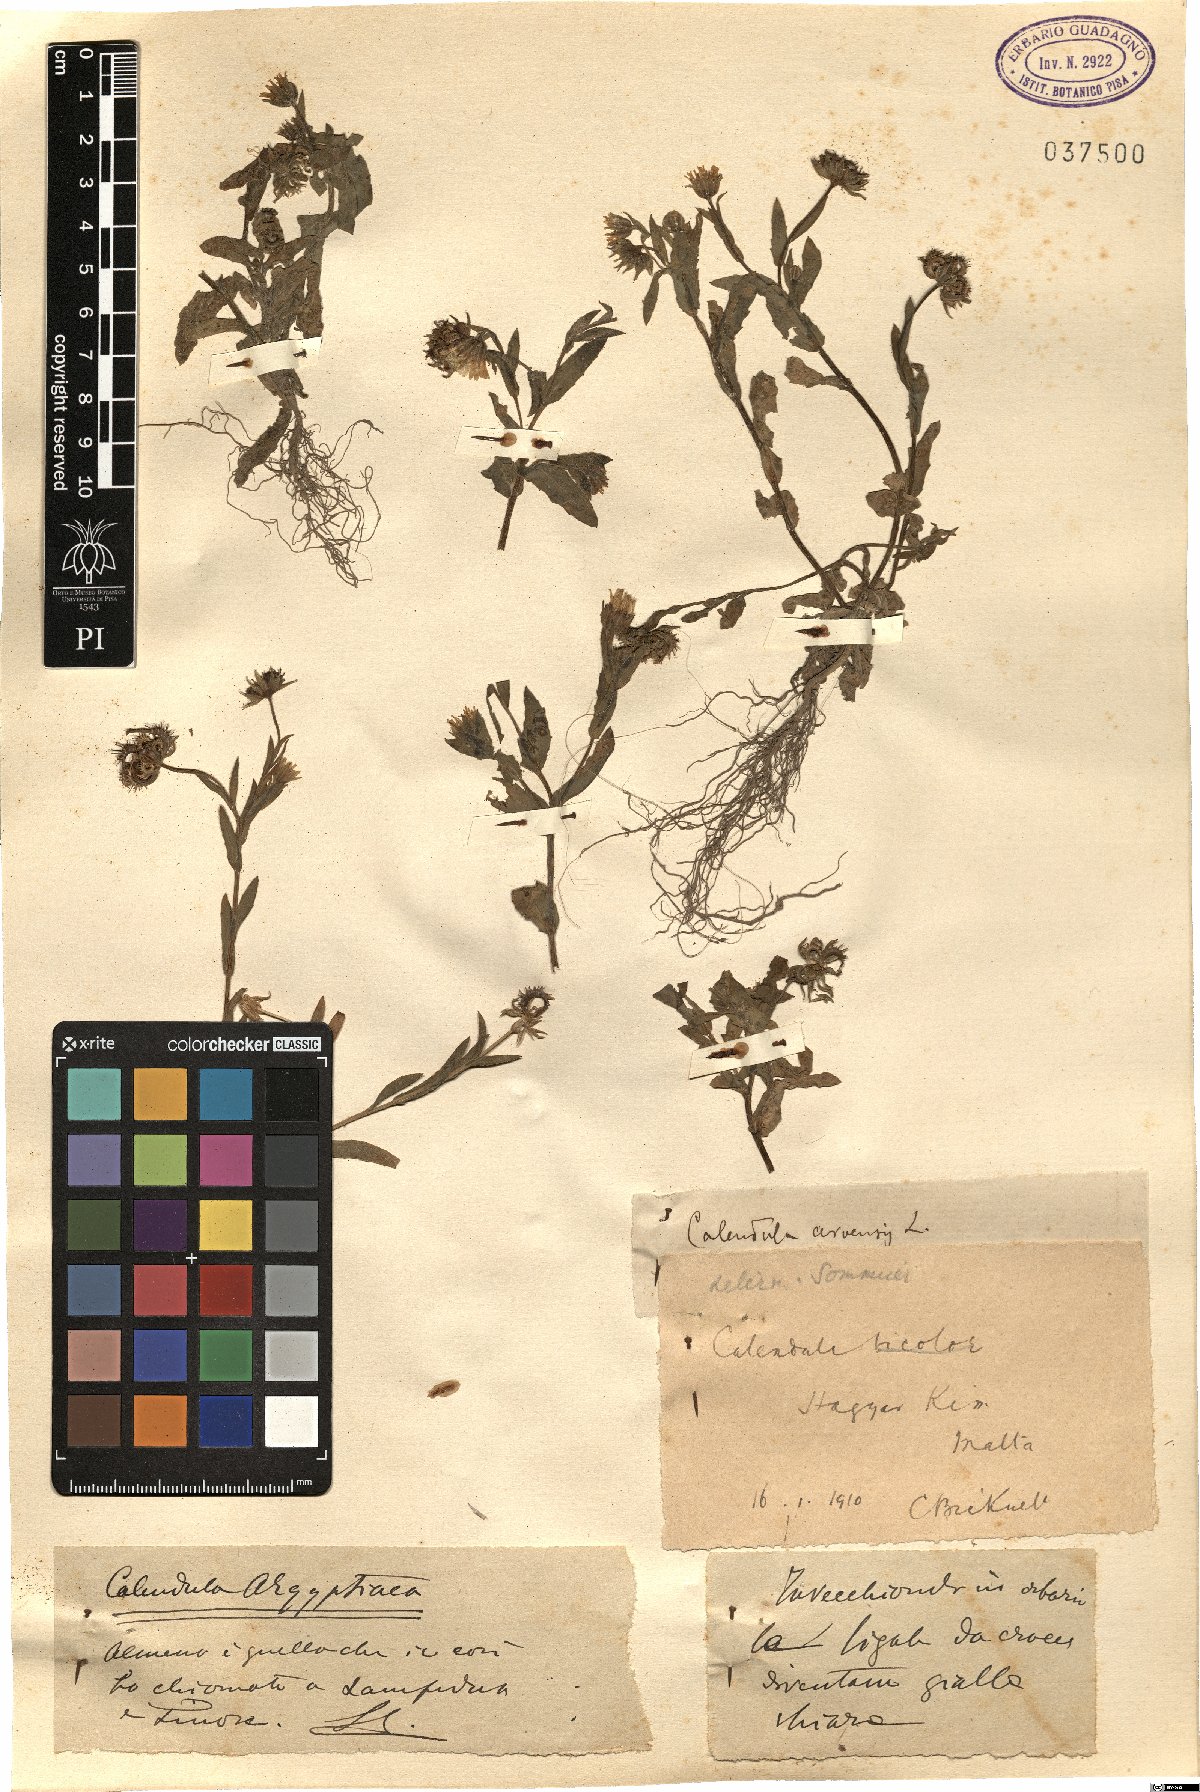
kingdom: Plantae
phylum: Tracheophyta
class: Magnoliopsida
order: Asterales
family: Asteraceae
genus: Calendula
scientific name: Calendula arvensis
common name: Field marigold
